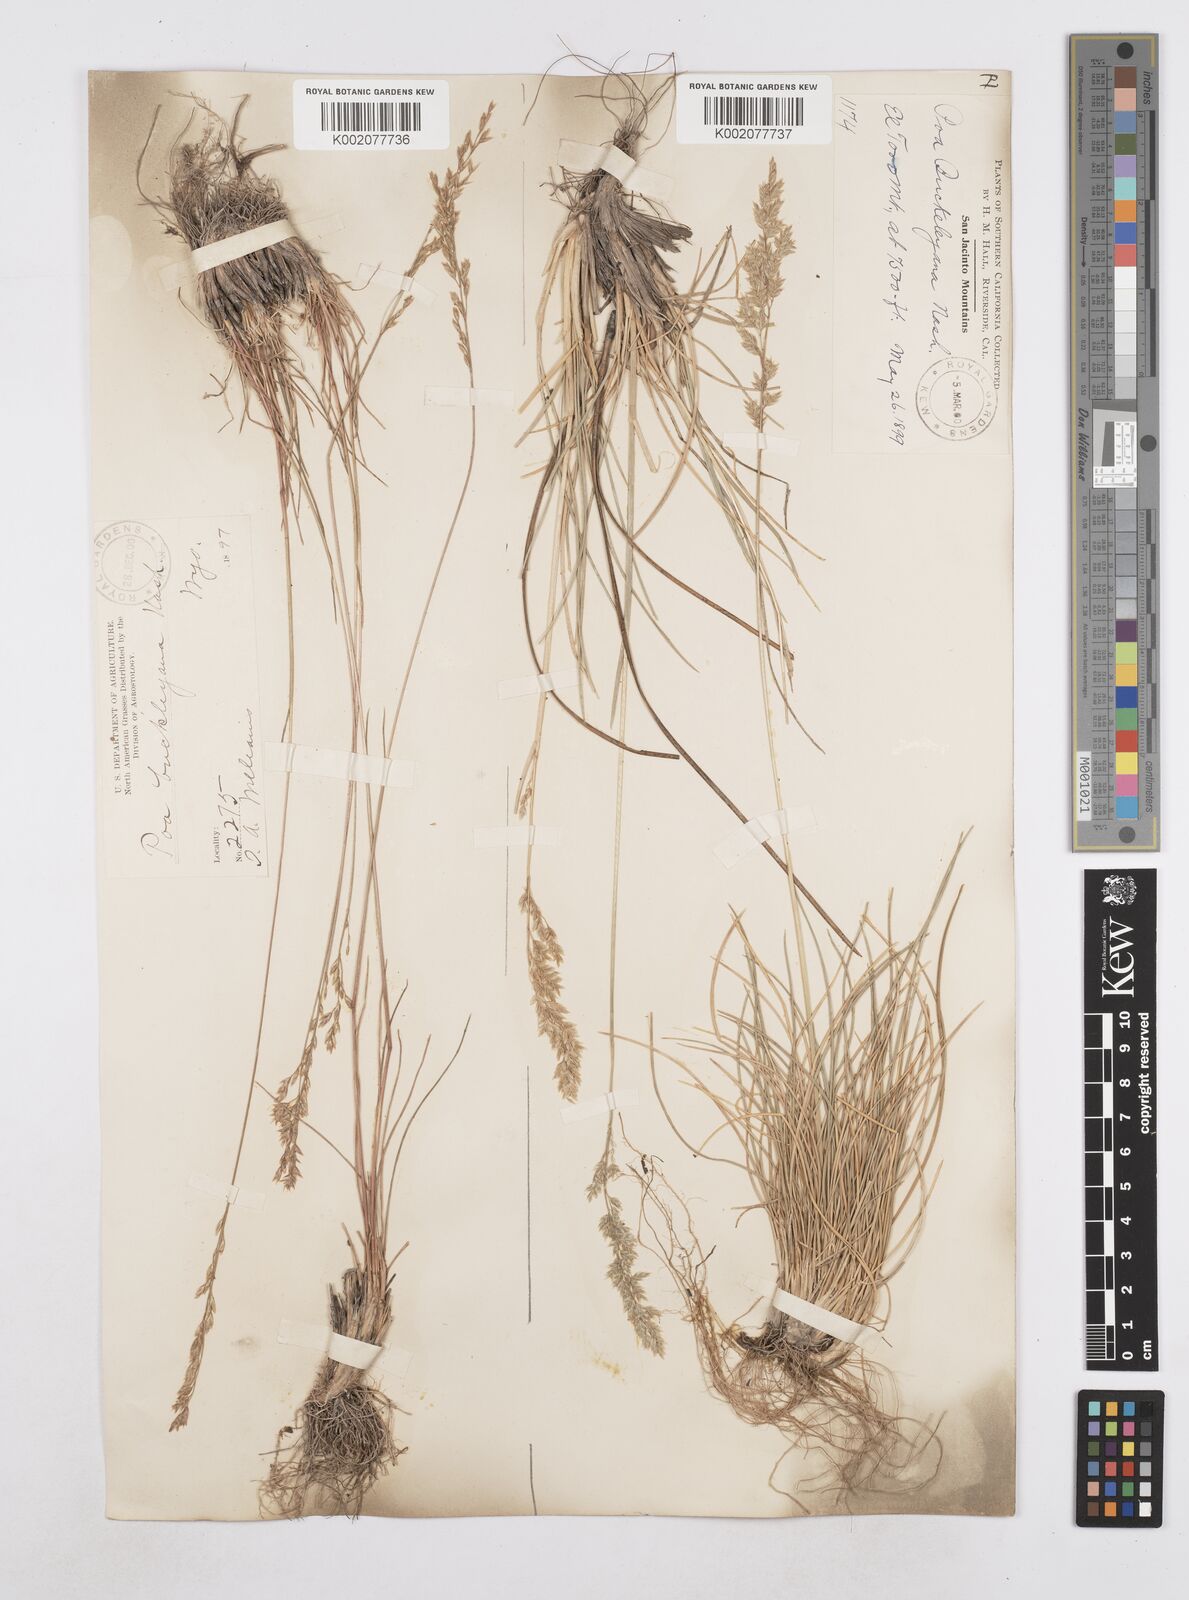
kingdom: Plantae
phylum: Tracheophyta
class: Liliopsida
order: Poales
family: Poaceae
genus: Poa
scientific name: Poa secunda
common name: Sandberg bluegrass
